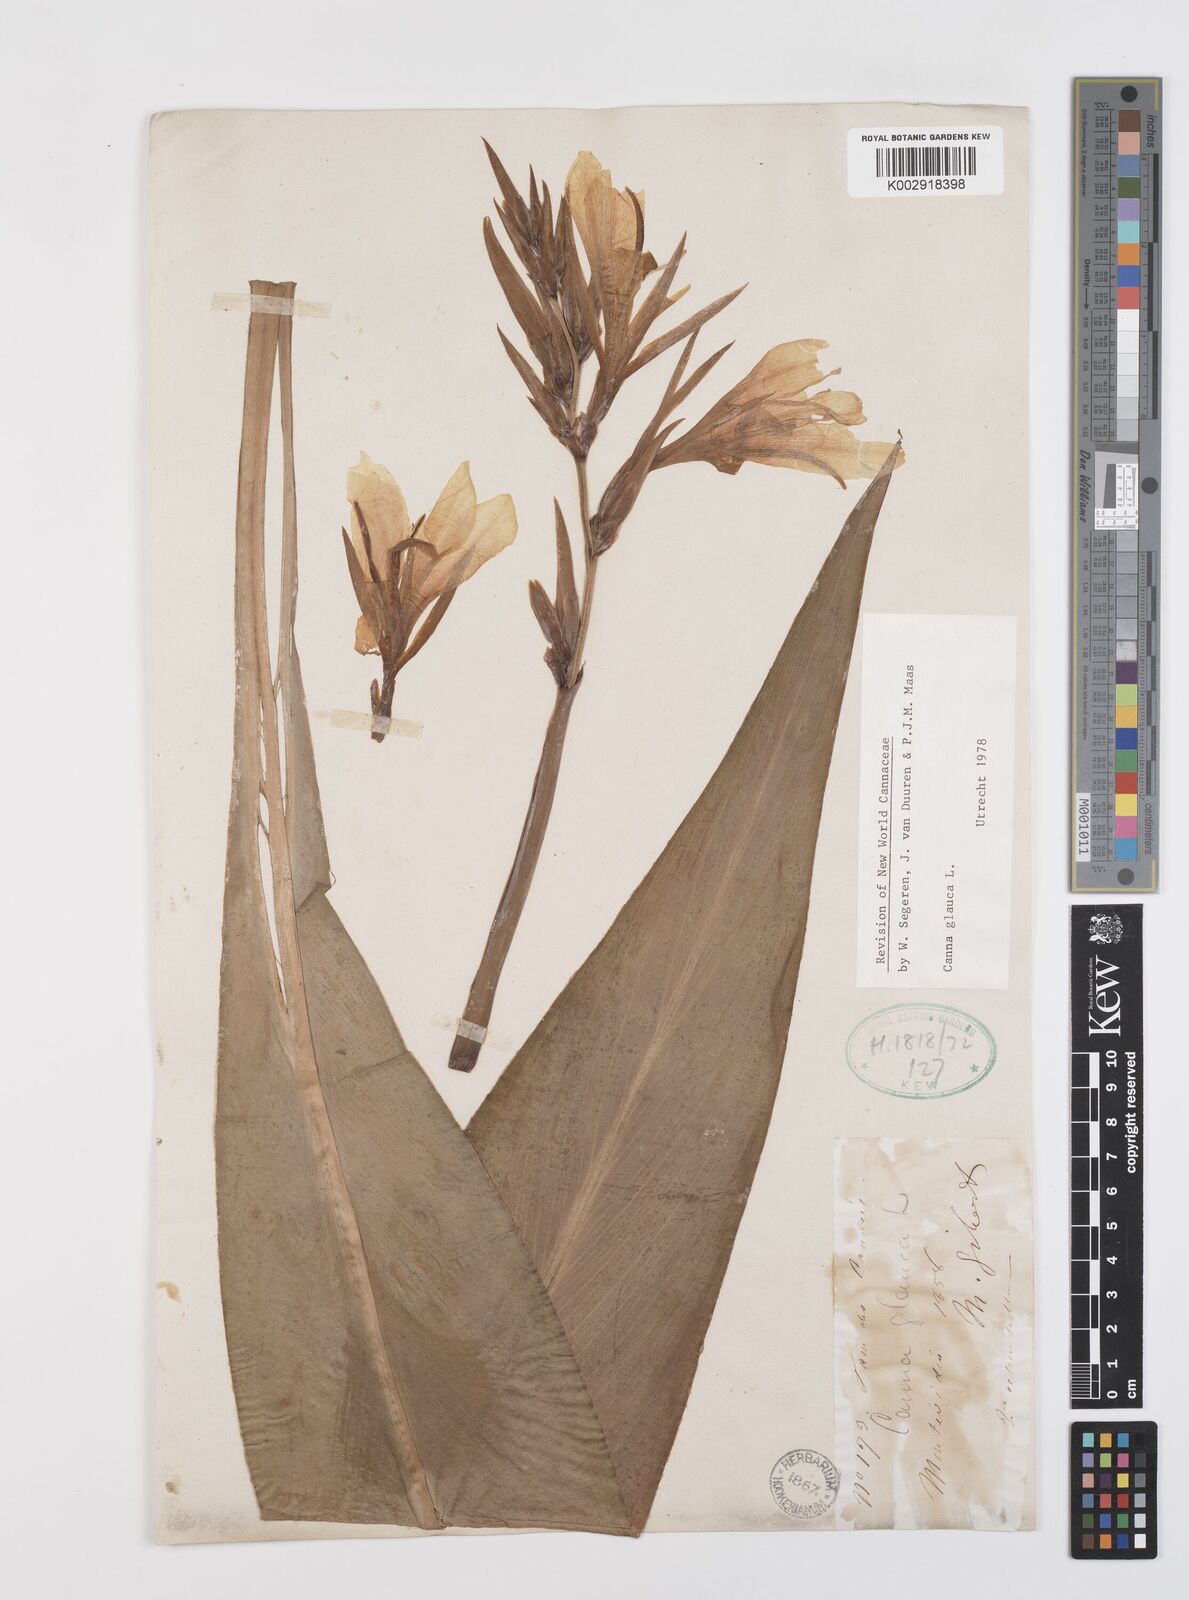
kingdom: Plantae
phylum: Tracheophyta
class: Liliopsida
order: Zingiberales
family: Cannaceae
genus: Canna
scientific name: Canna glauca
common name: Louisiana canna
